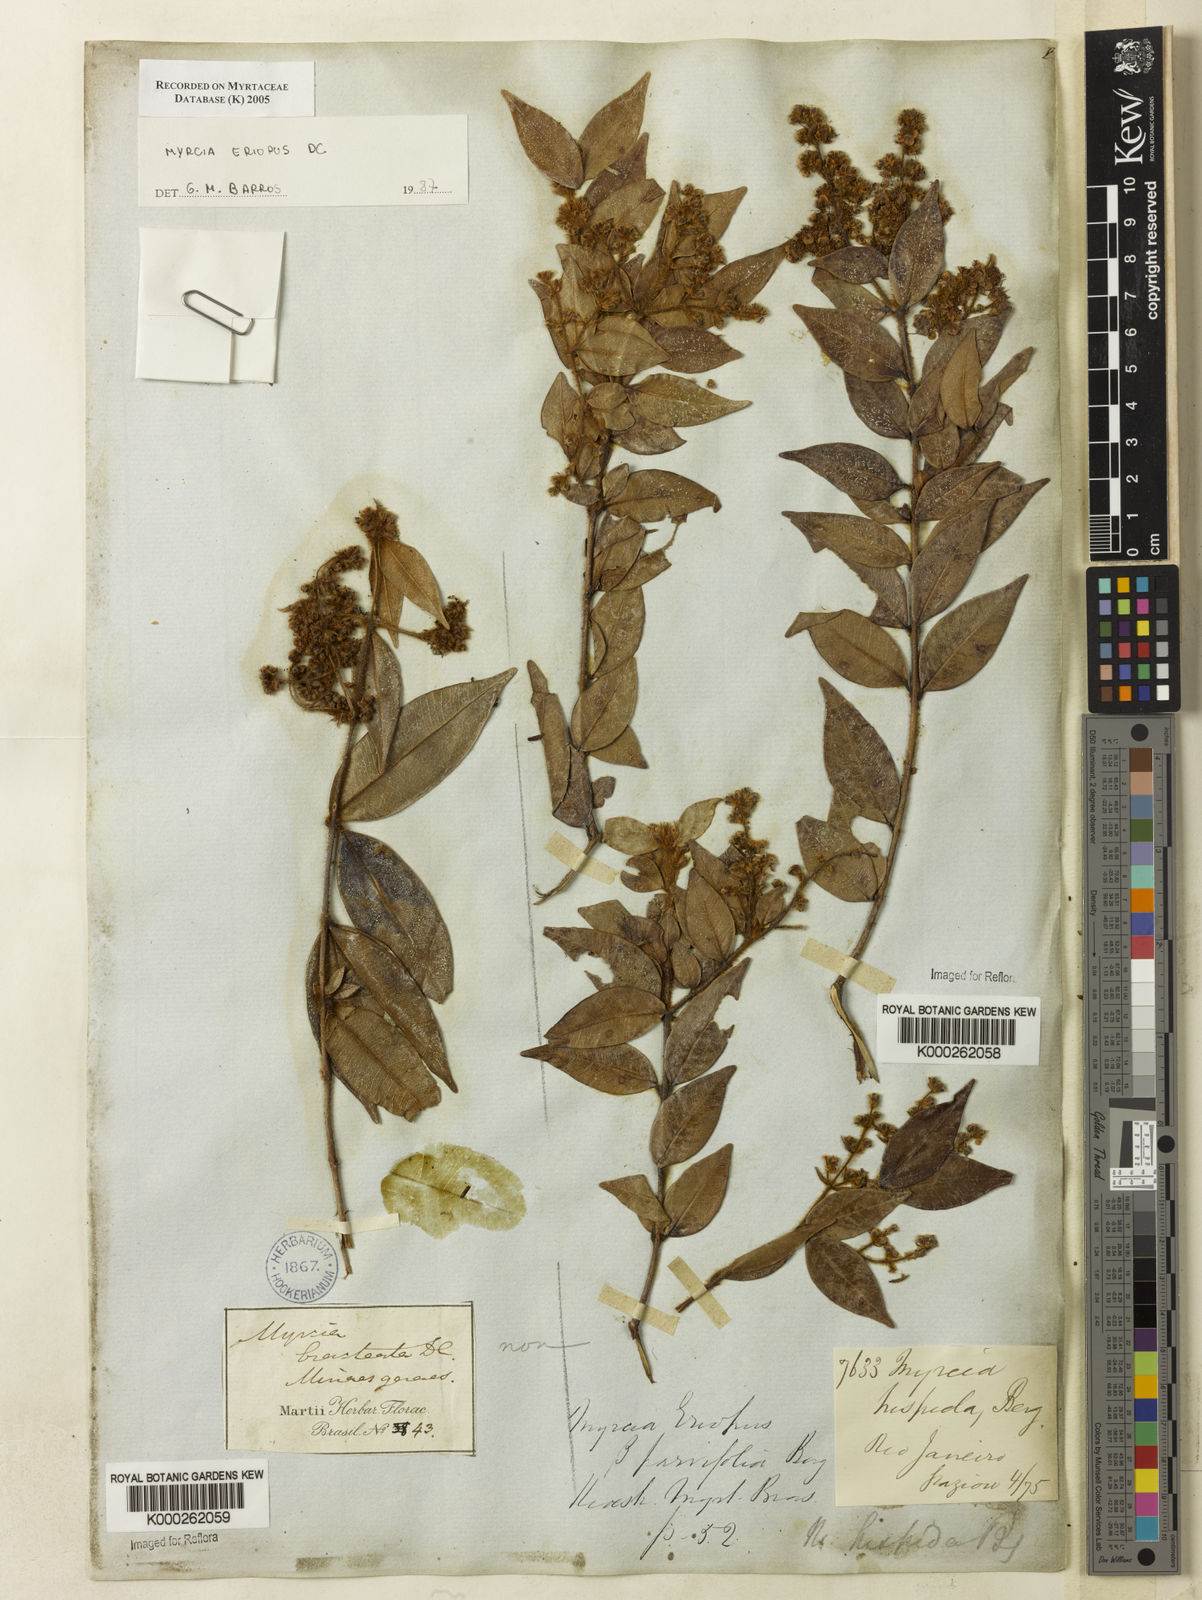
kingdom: Plantae
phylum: Tracheophyta
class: Magnoliopsida
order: Myrtales
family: Myrtaceae
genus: Myrcia
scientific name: Myrcia eriopus
